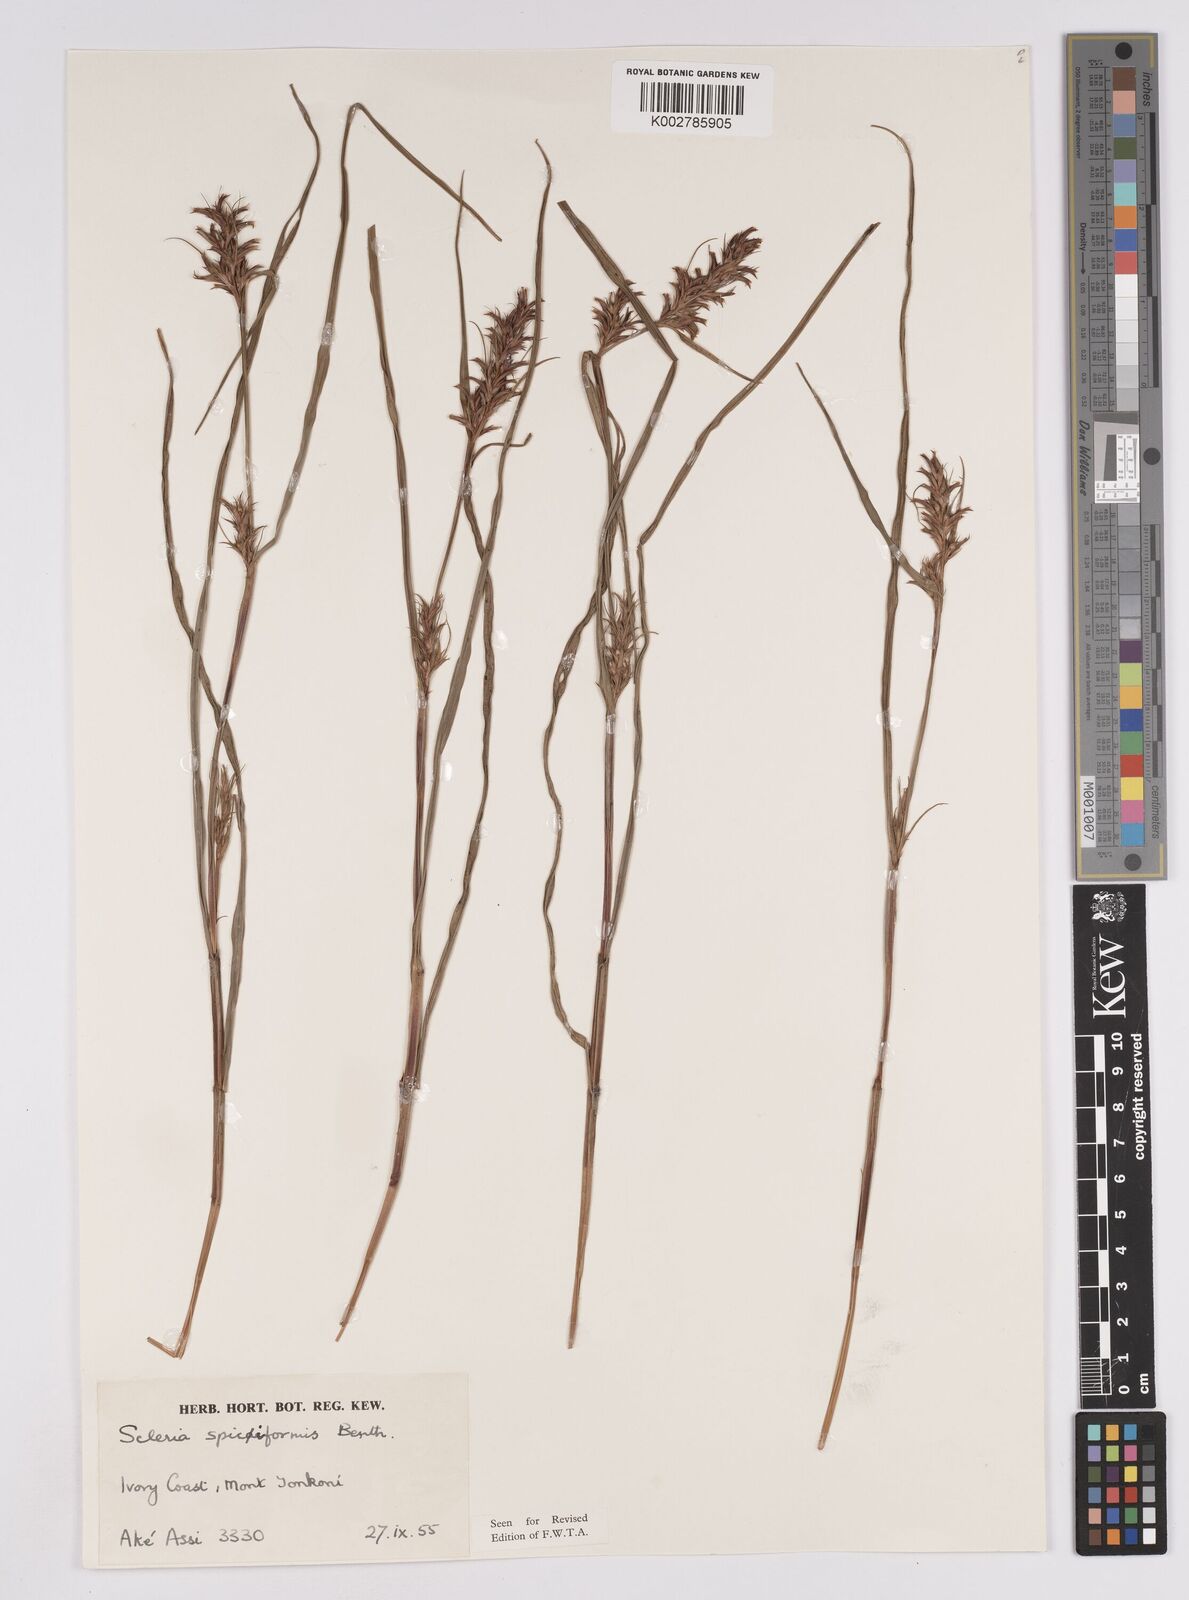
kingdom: Plantae
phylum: Tracheophyta
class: Liliopsida
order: Poales
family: Cyperaceae
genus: Scleria
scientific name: Scleria spiciformis
